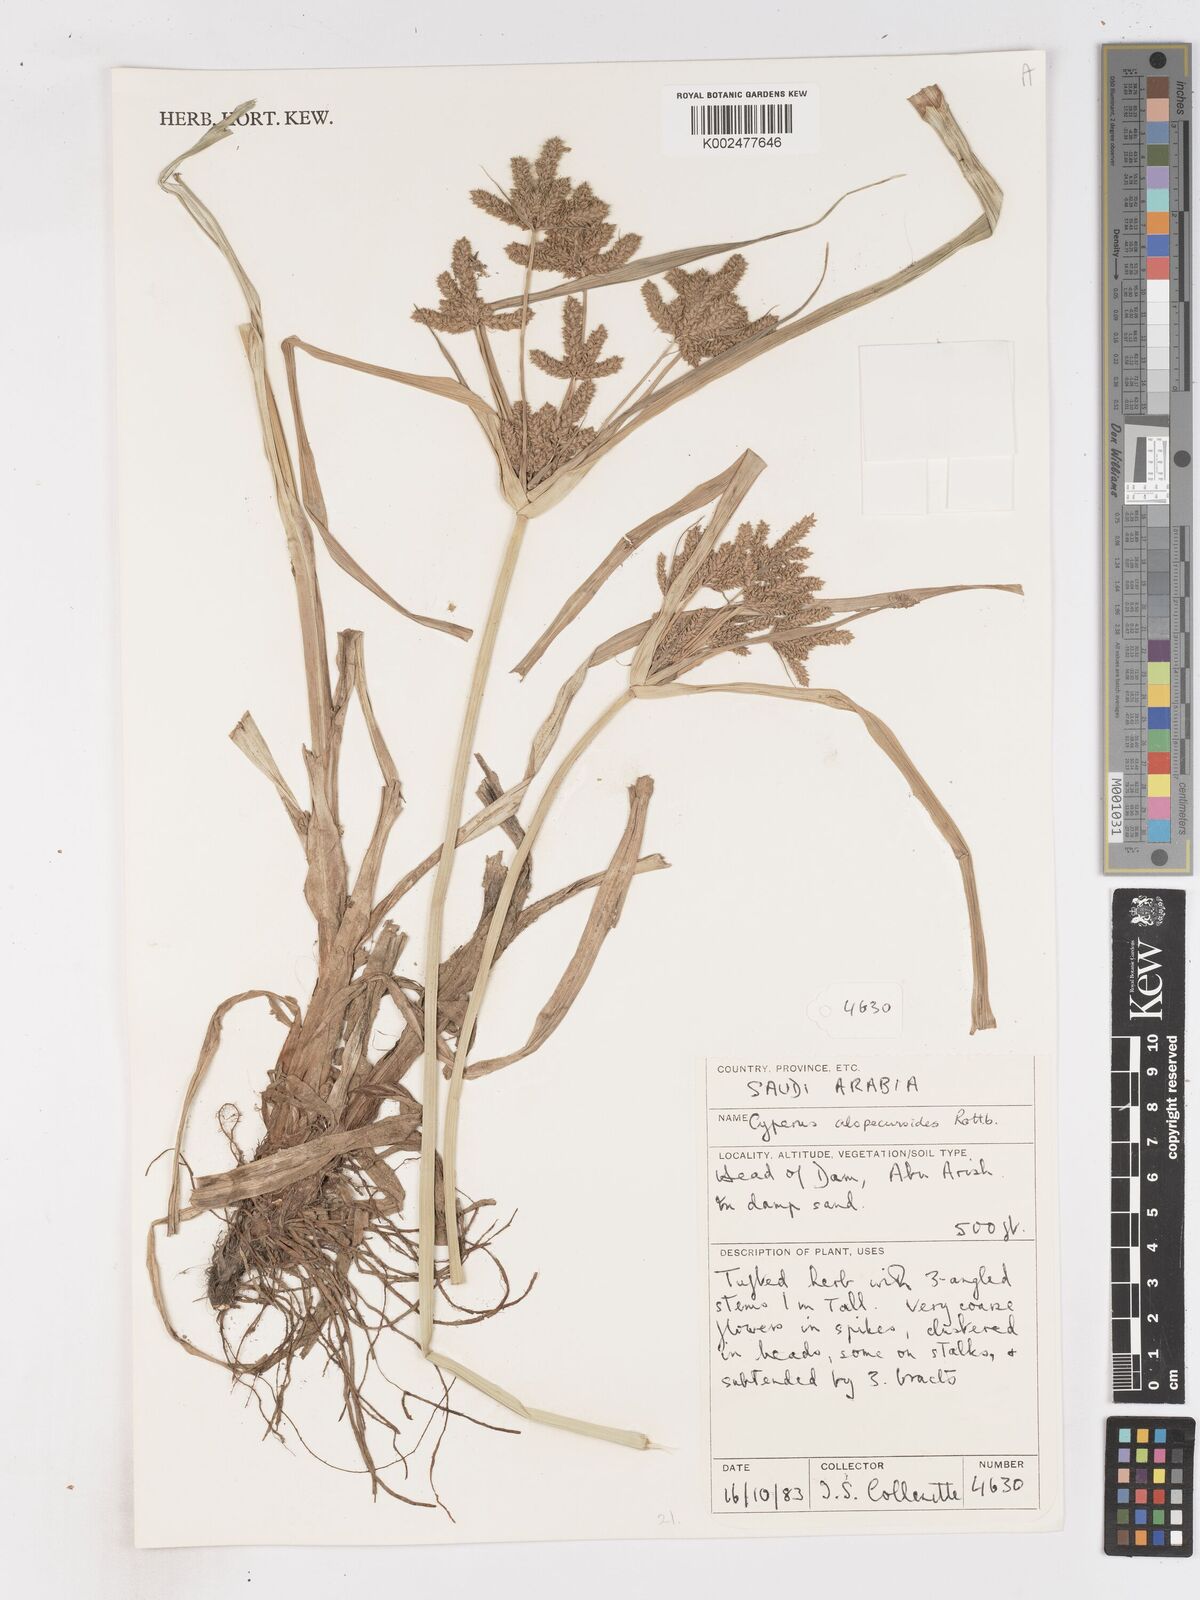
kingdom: Plantae
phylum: Tracheophyta
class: Liliopsida
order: Poales
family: Cyperaceae
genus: Cyperus
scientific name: Cyperus alopecuroides
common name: Foxtail flatsedge
